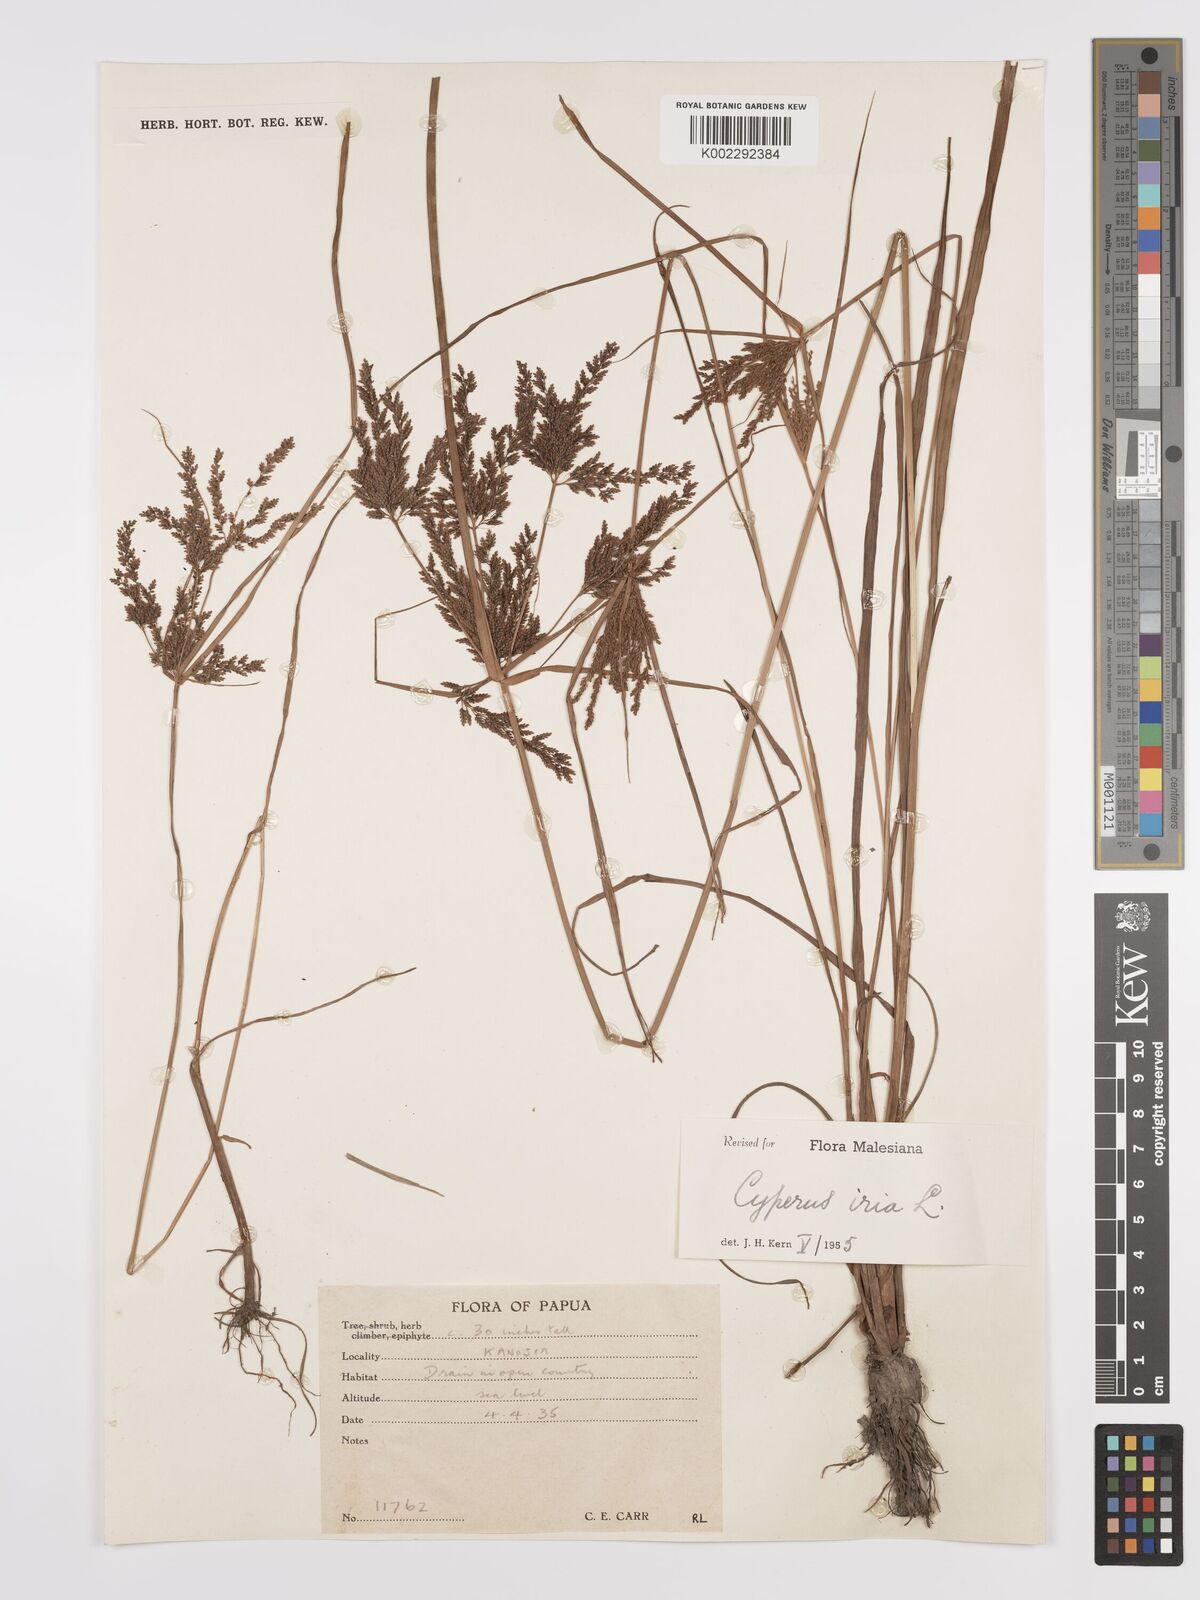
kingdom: Plantae
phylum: Tracheophyta
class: Liliopsida
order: Poales
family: Cyperaceae
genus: Cyperus
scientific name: Cyperus iria
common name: Ricefield flatsedge
